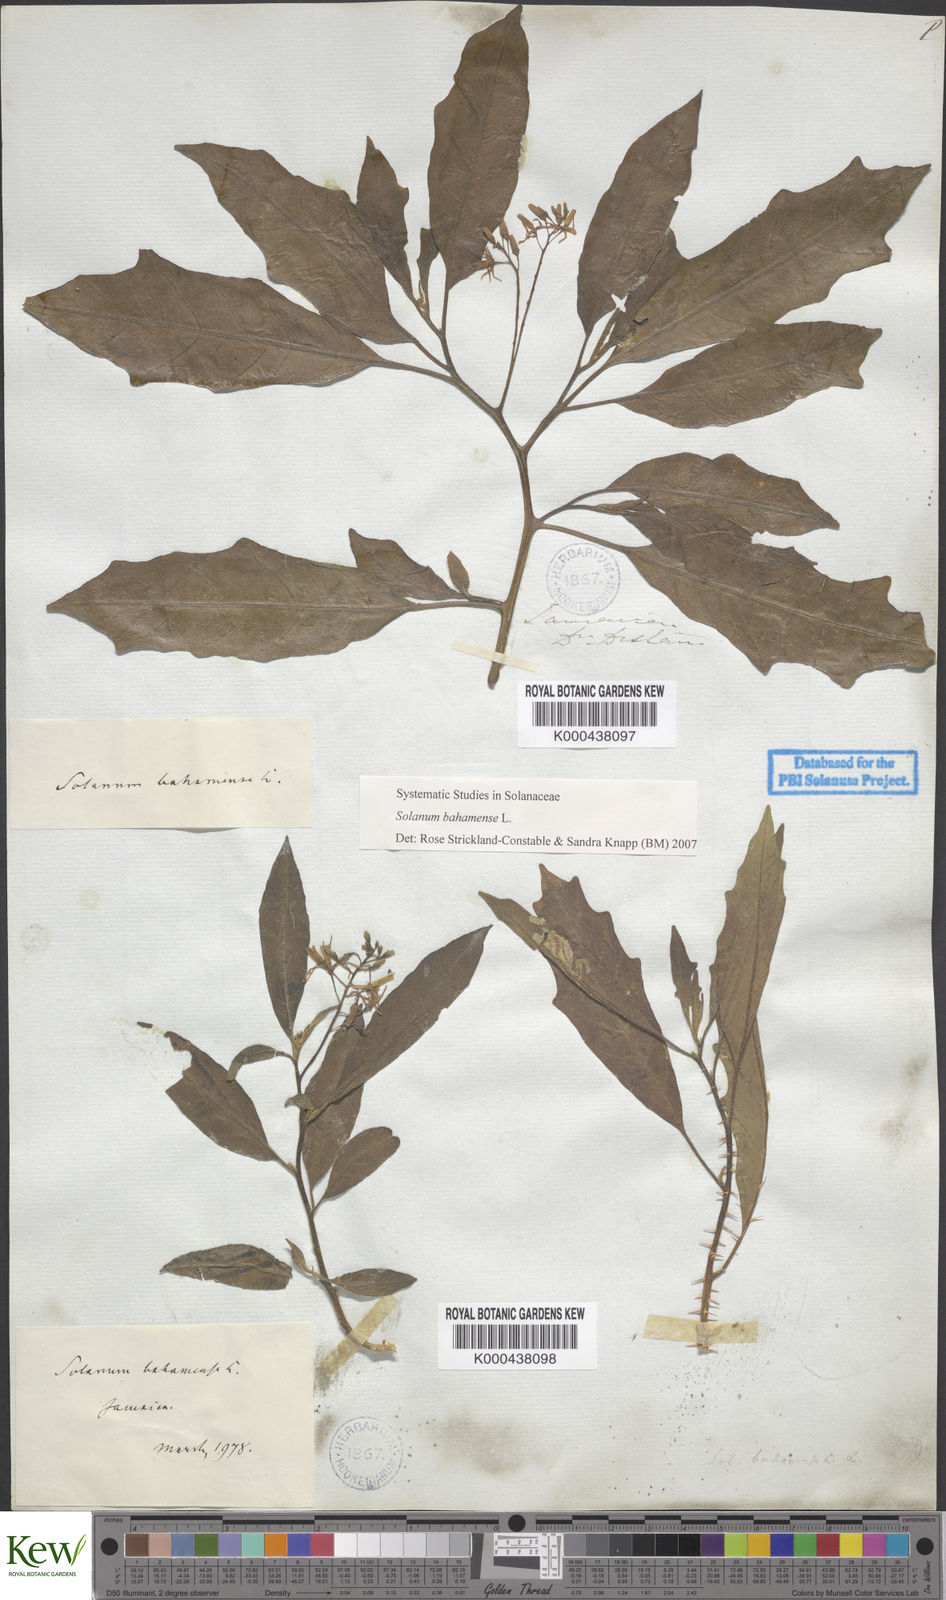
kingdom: Plantae
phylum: Tracheophyta
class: Magnoliopsida
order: Solanales
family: Solanaceae
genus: Solanum
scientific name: Solanum bahamense
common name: Canker-berry
